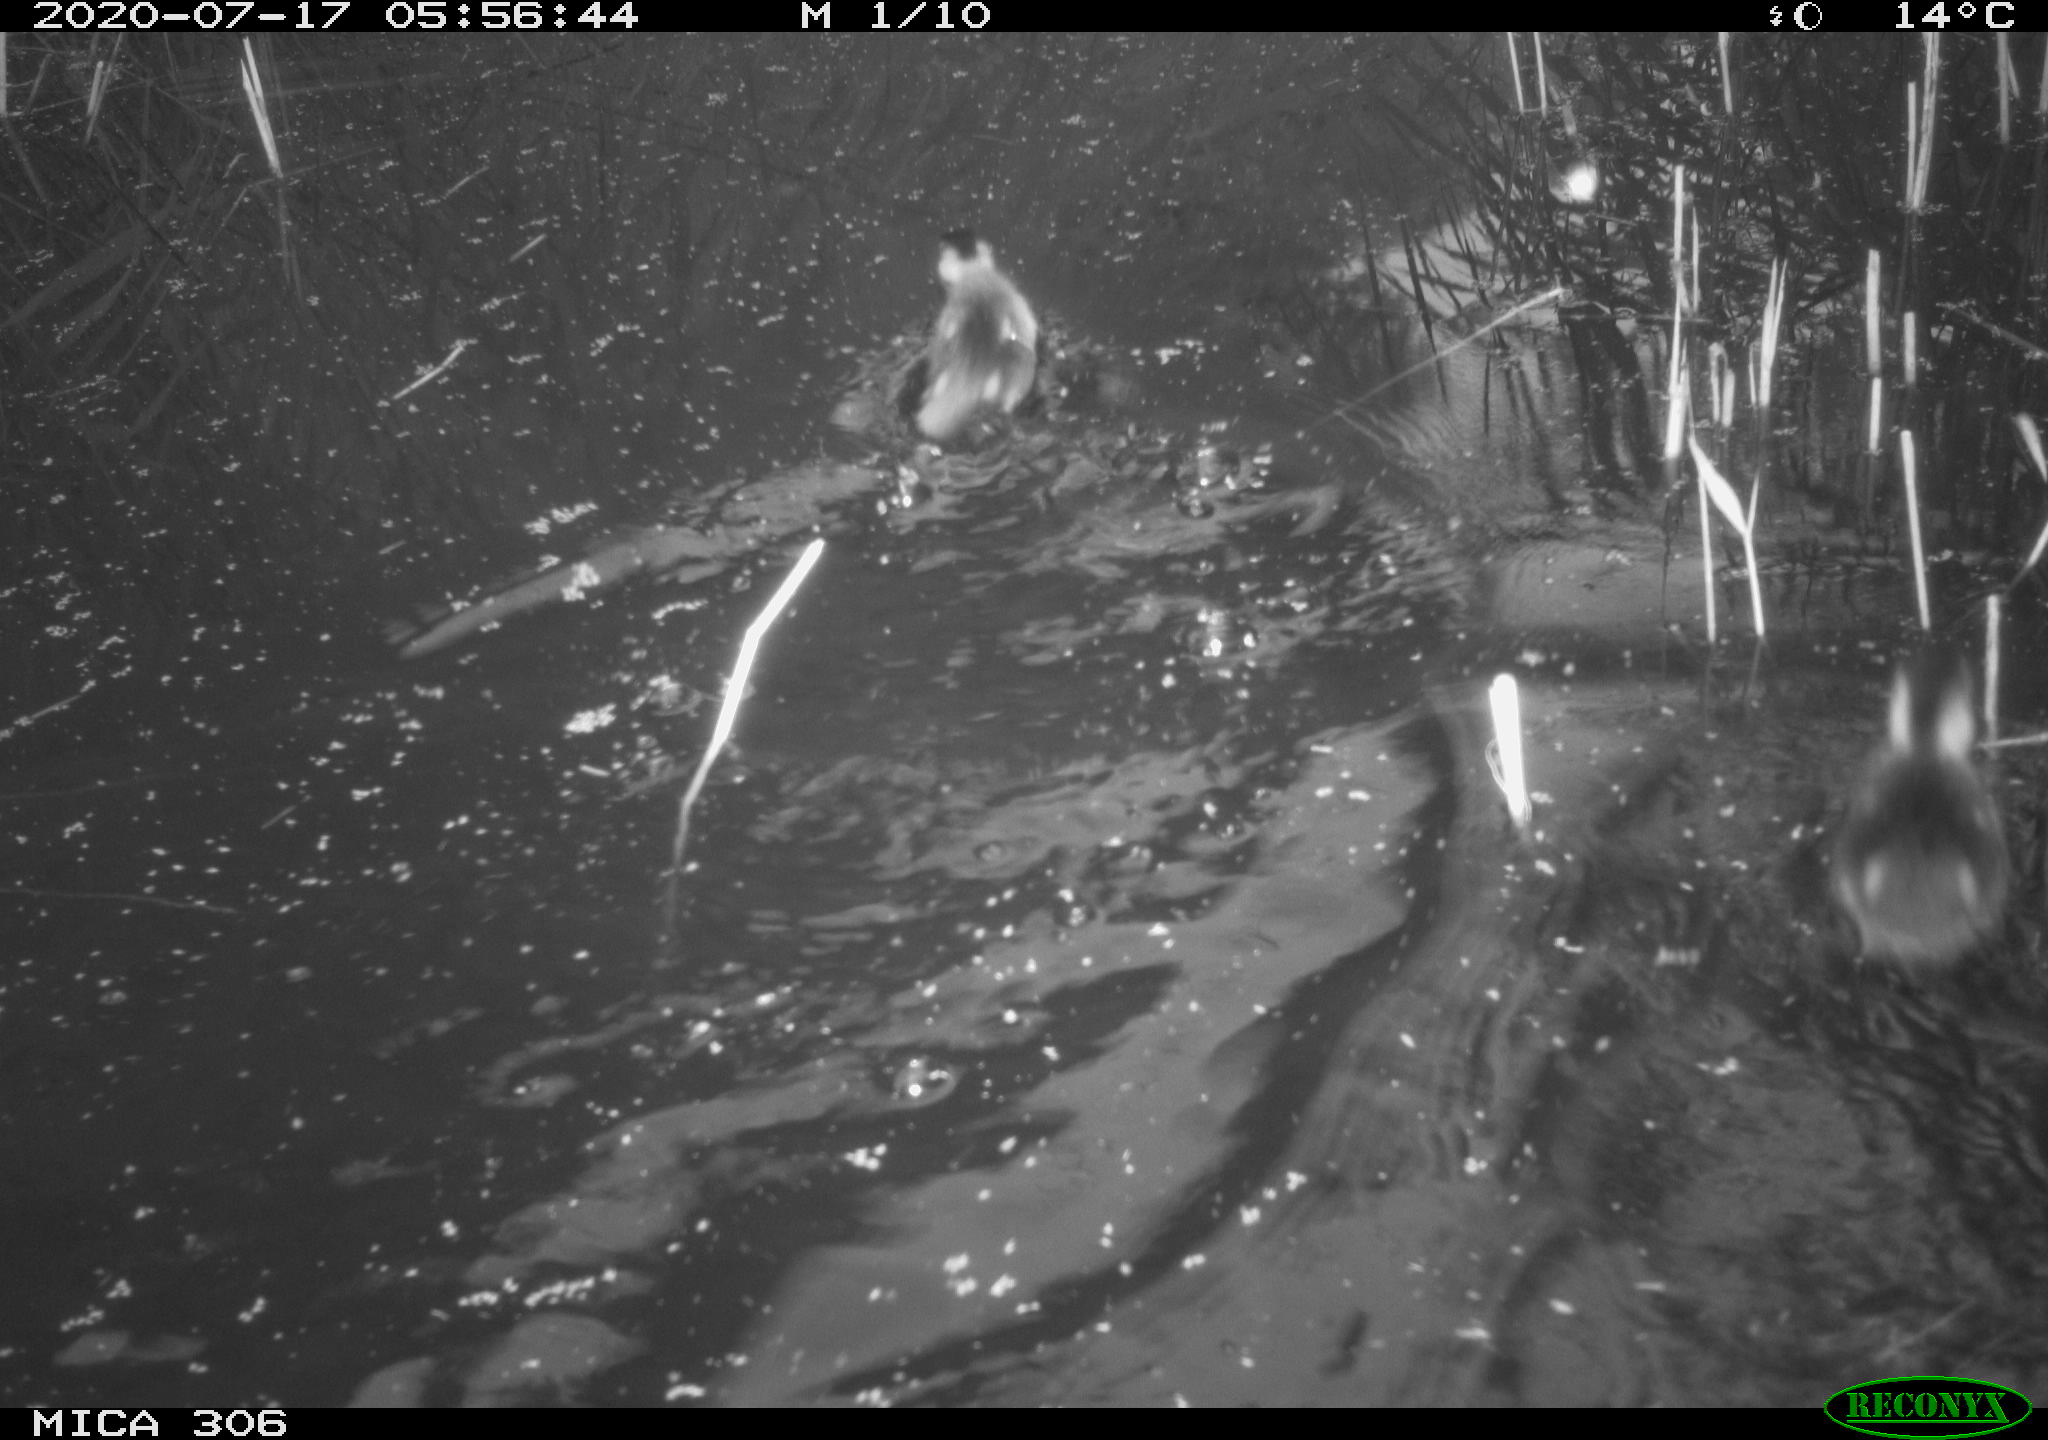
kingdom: Animalia
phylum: Chordata
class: Aves
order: Anseriformes
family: Anatidae
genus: Anas
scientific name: Anas platyrhynchos
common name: Mallard
